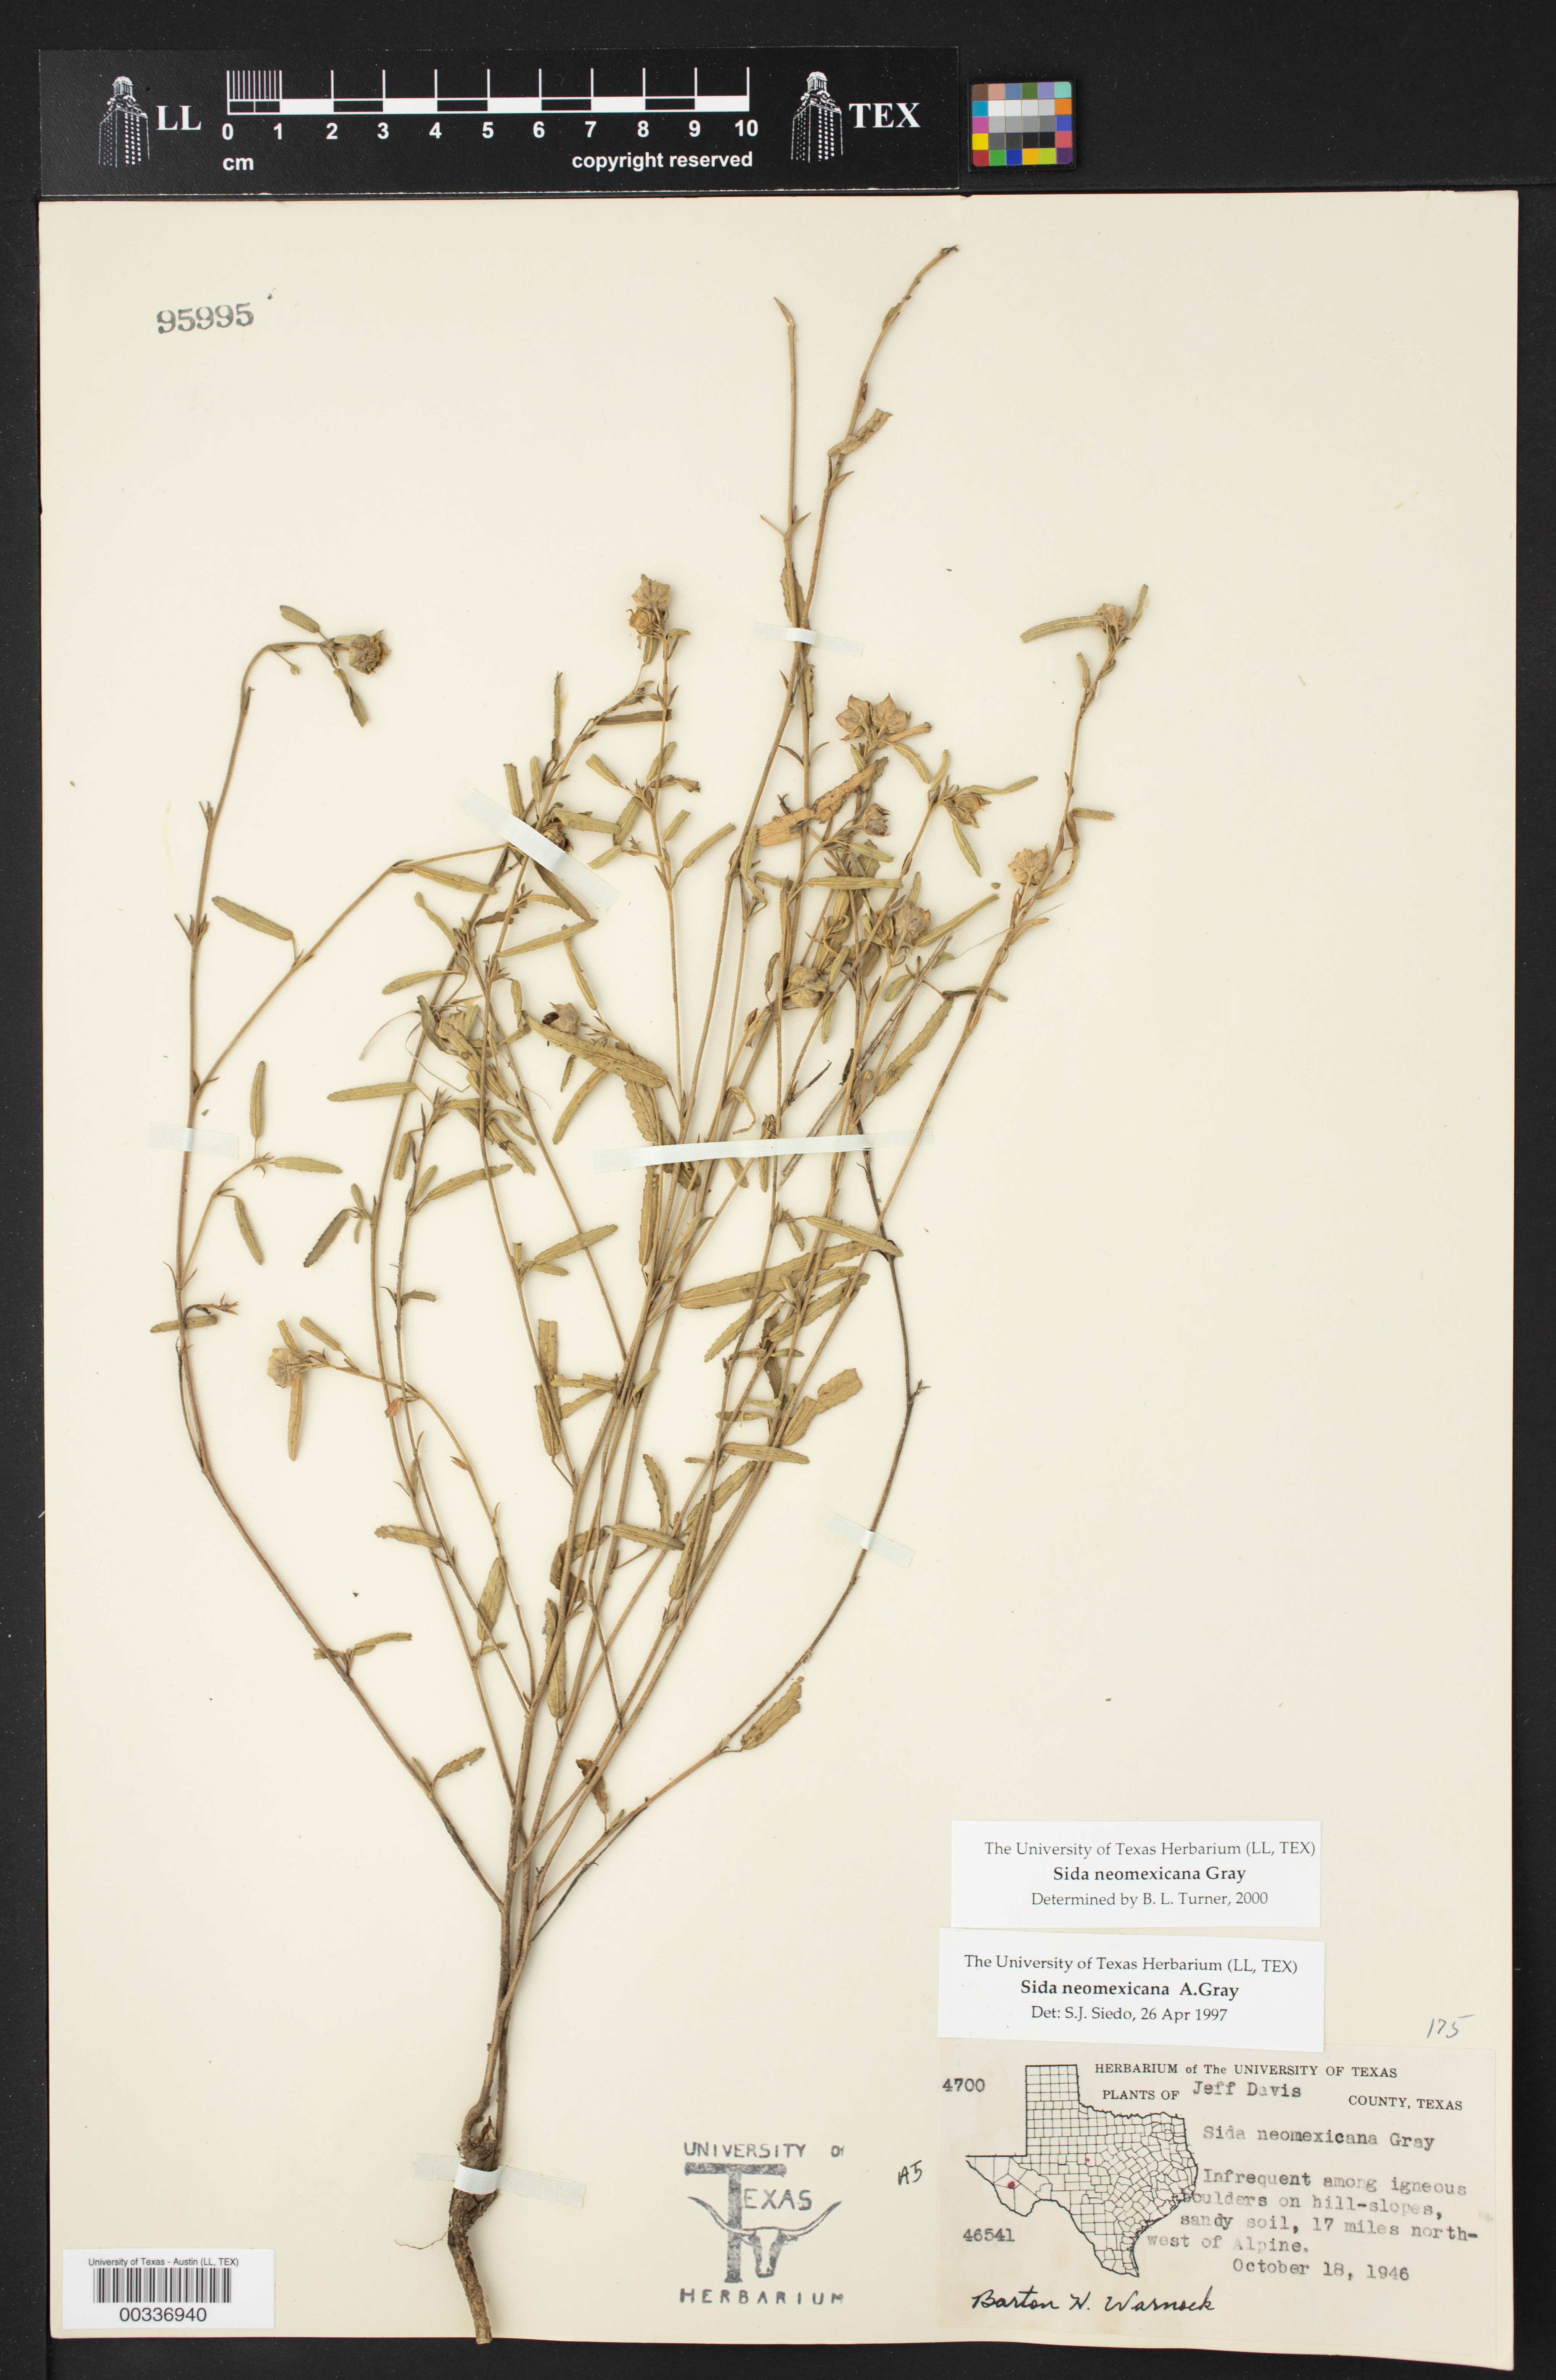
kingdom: Plantae
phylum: Tracheophyta
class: Magnoliopsida
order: Malvales
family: Malvaceae
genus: Sida
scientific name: Sida neomexicana
